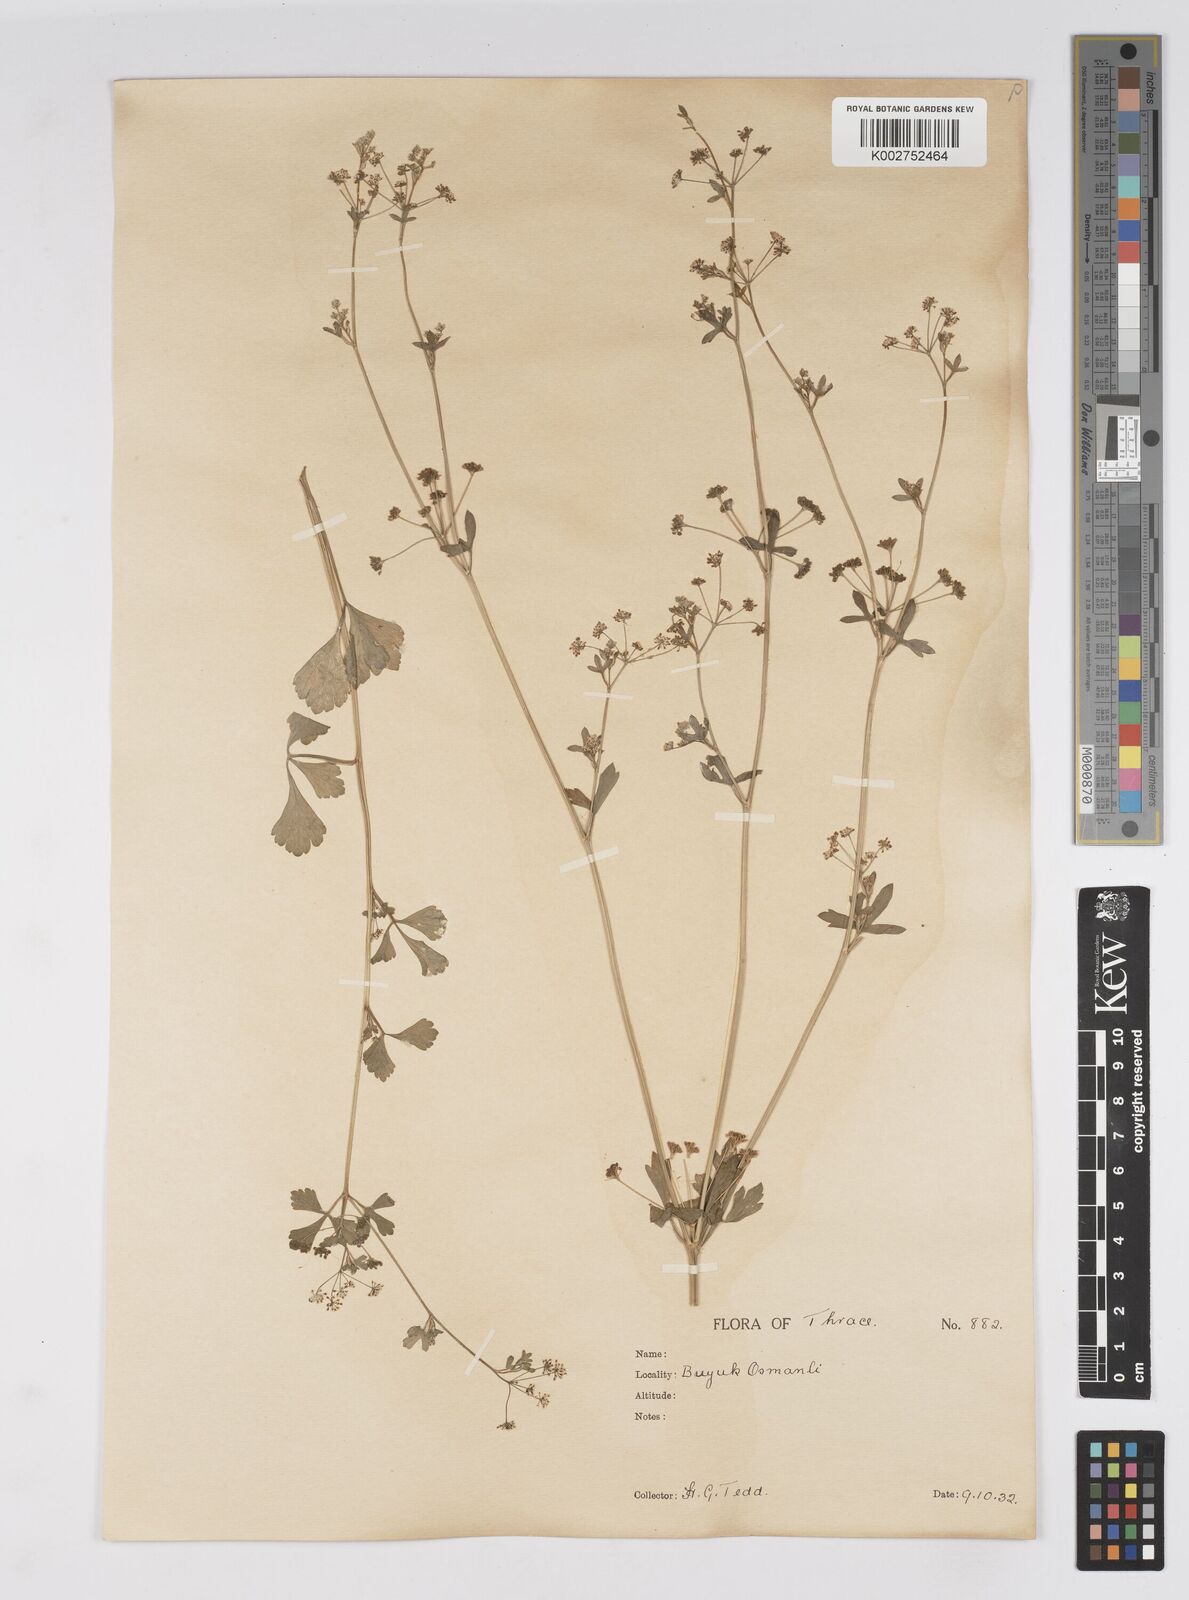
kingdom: Plantae
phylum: Tracheophyta
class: Magnoliopsida
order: Apiales
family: Apiaceae
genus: Apium
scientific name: Apium graveolens
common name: Wild celery
